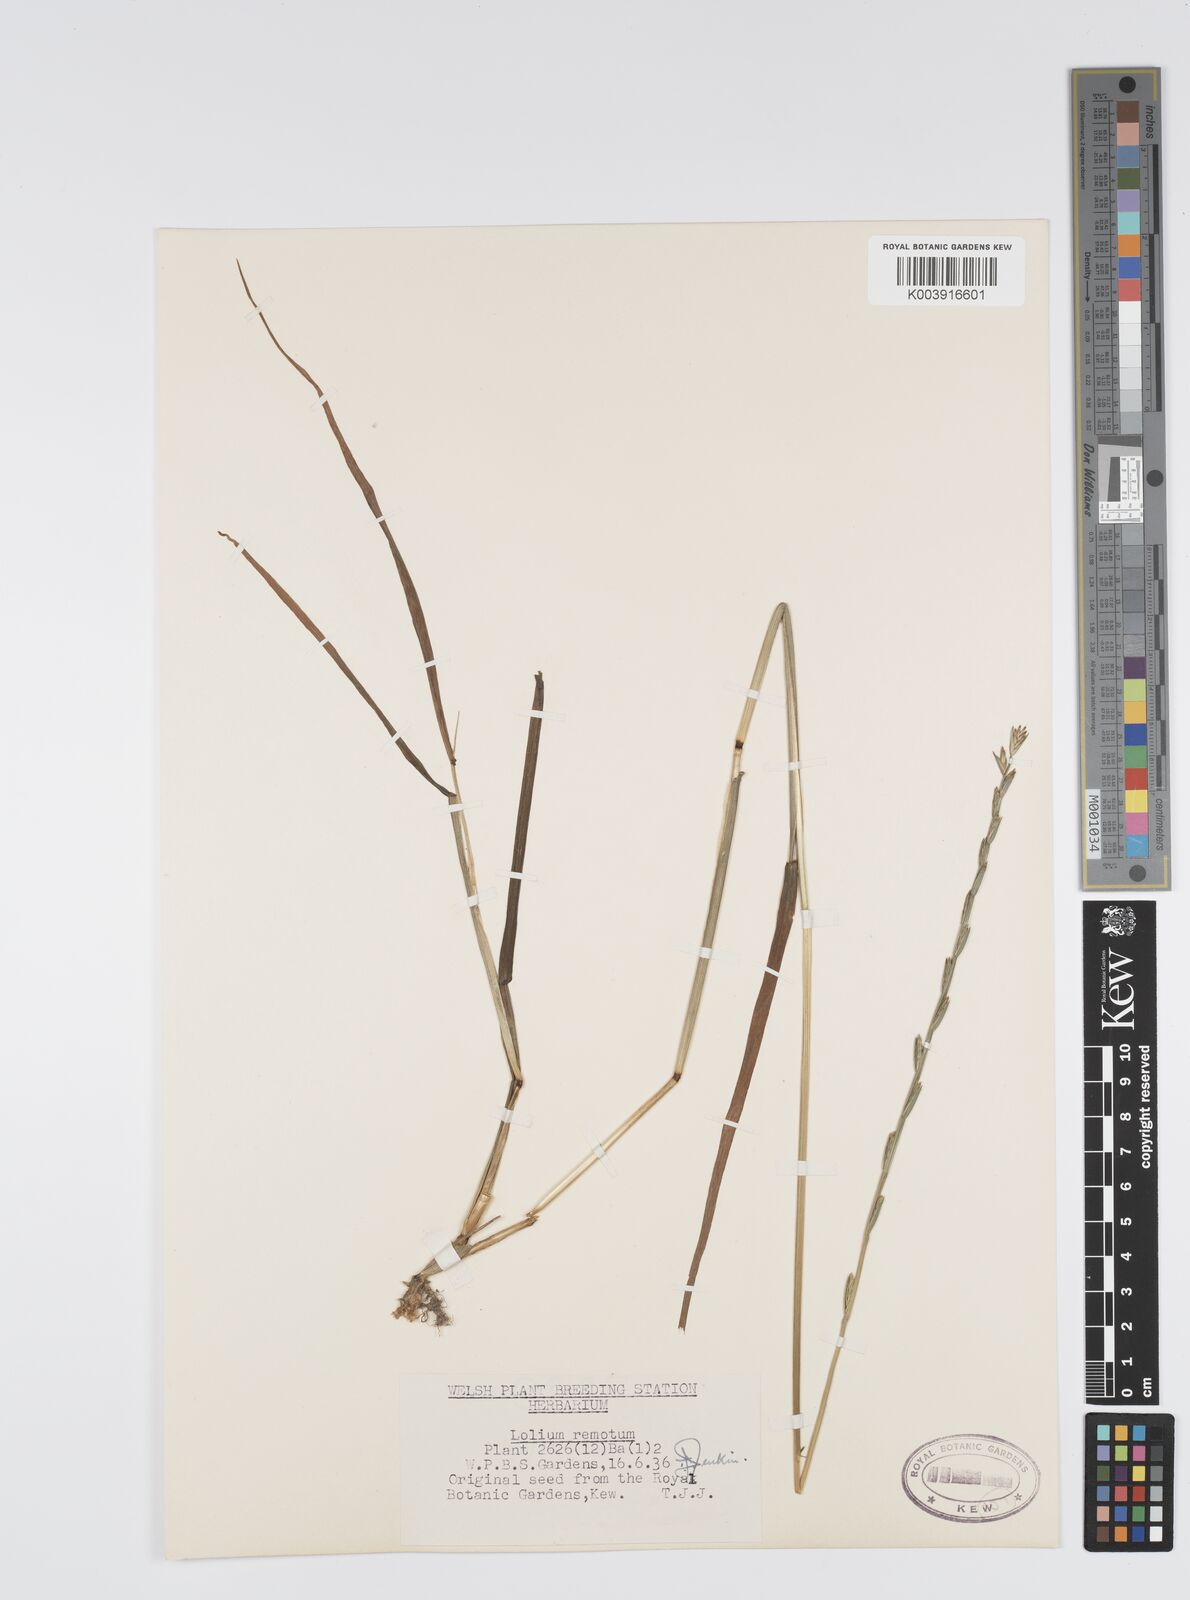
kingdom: Plantae
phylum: Tracheophyta
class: Liliopsida
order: Poales
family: Poaceae
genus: Lolium
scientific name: Lolium remotum
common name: Flaxfield rye-grass
